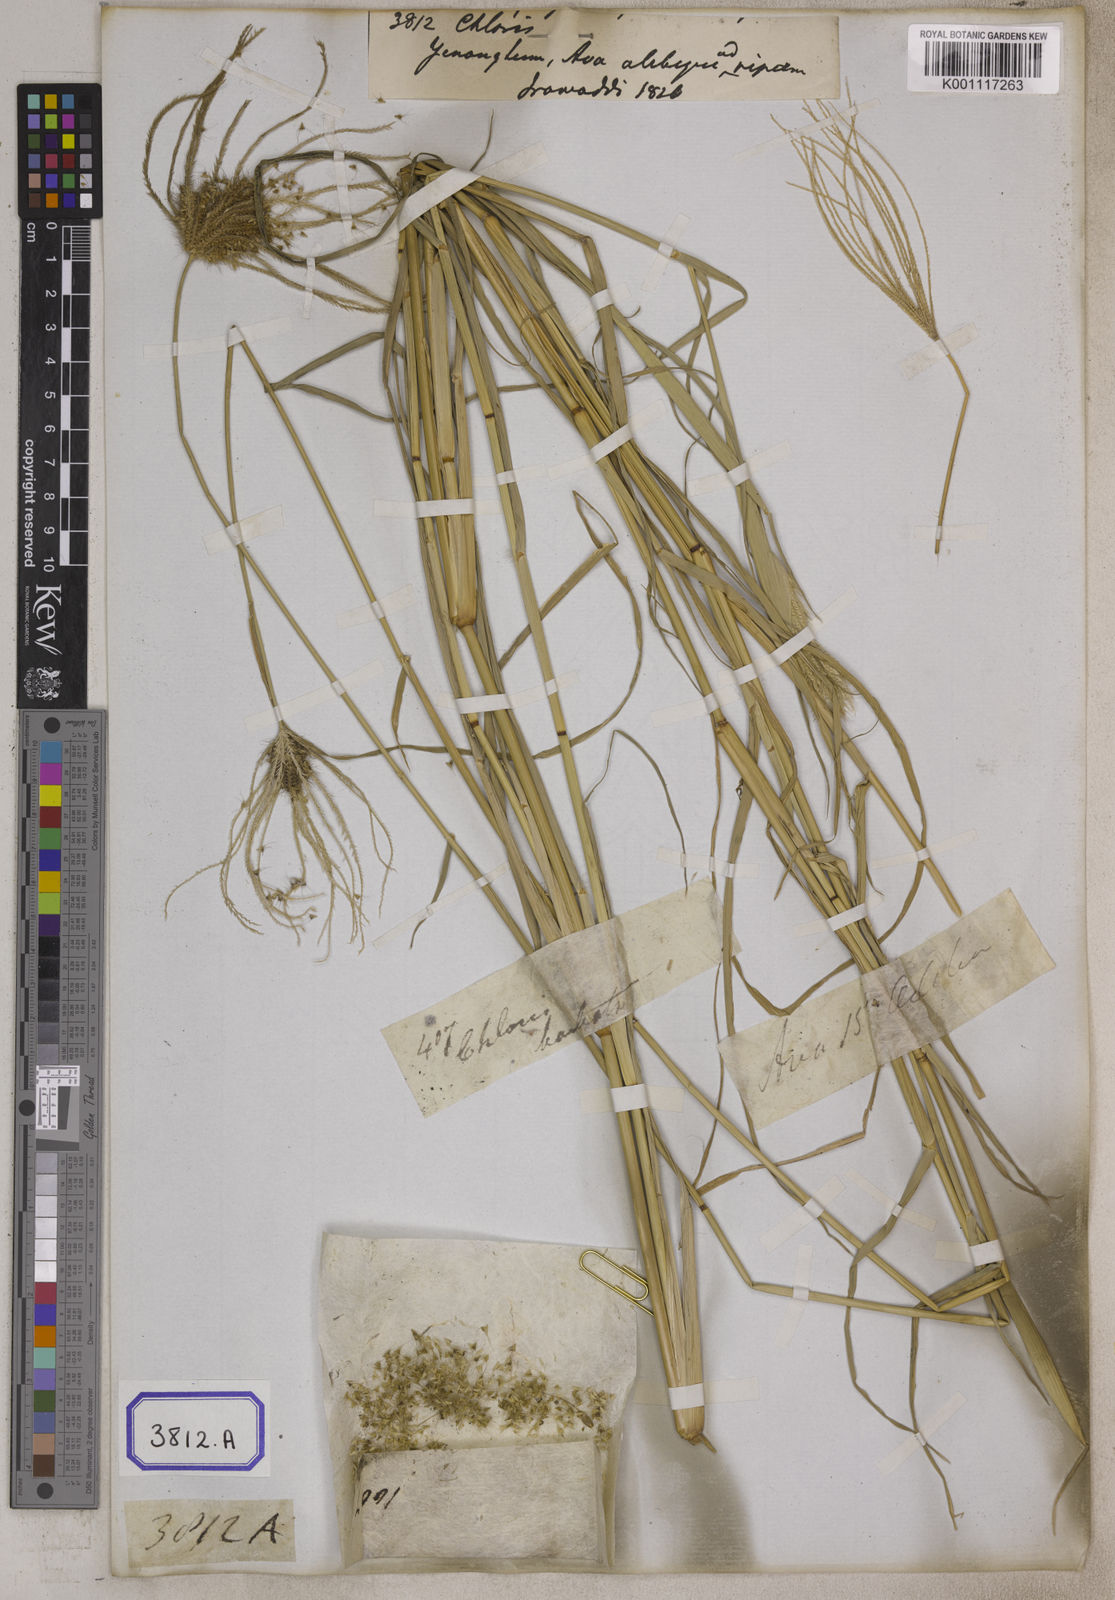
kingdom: Plantae
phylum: Tracheophyta
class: Liliopsida
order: Poales
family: Poaceae
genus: Chloris
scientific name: Chloris
